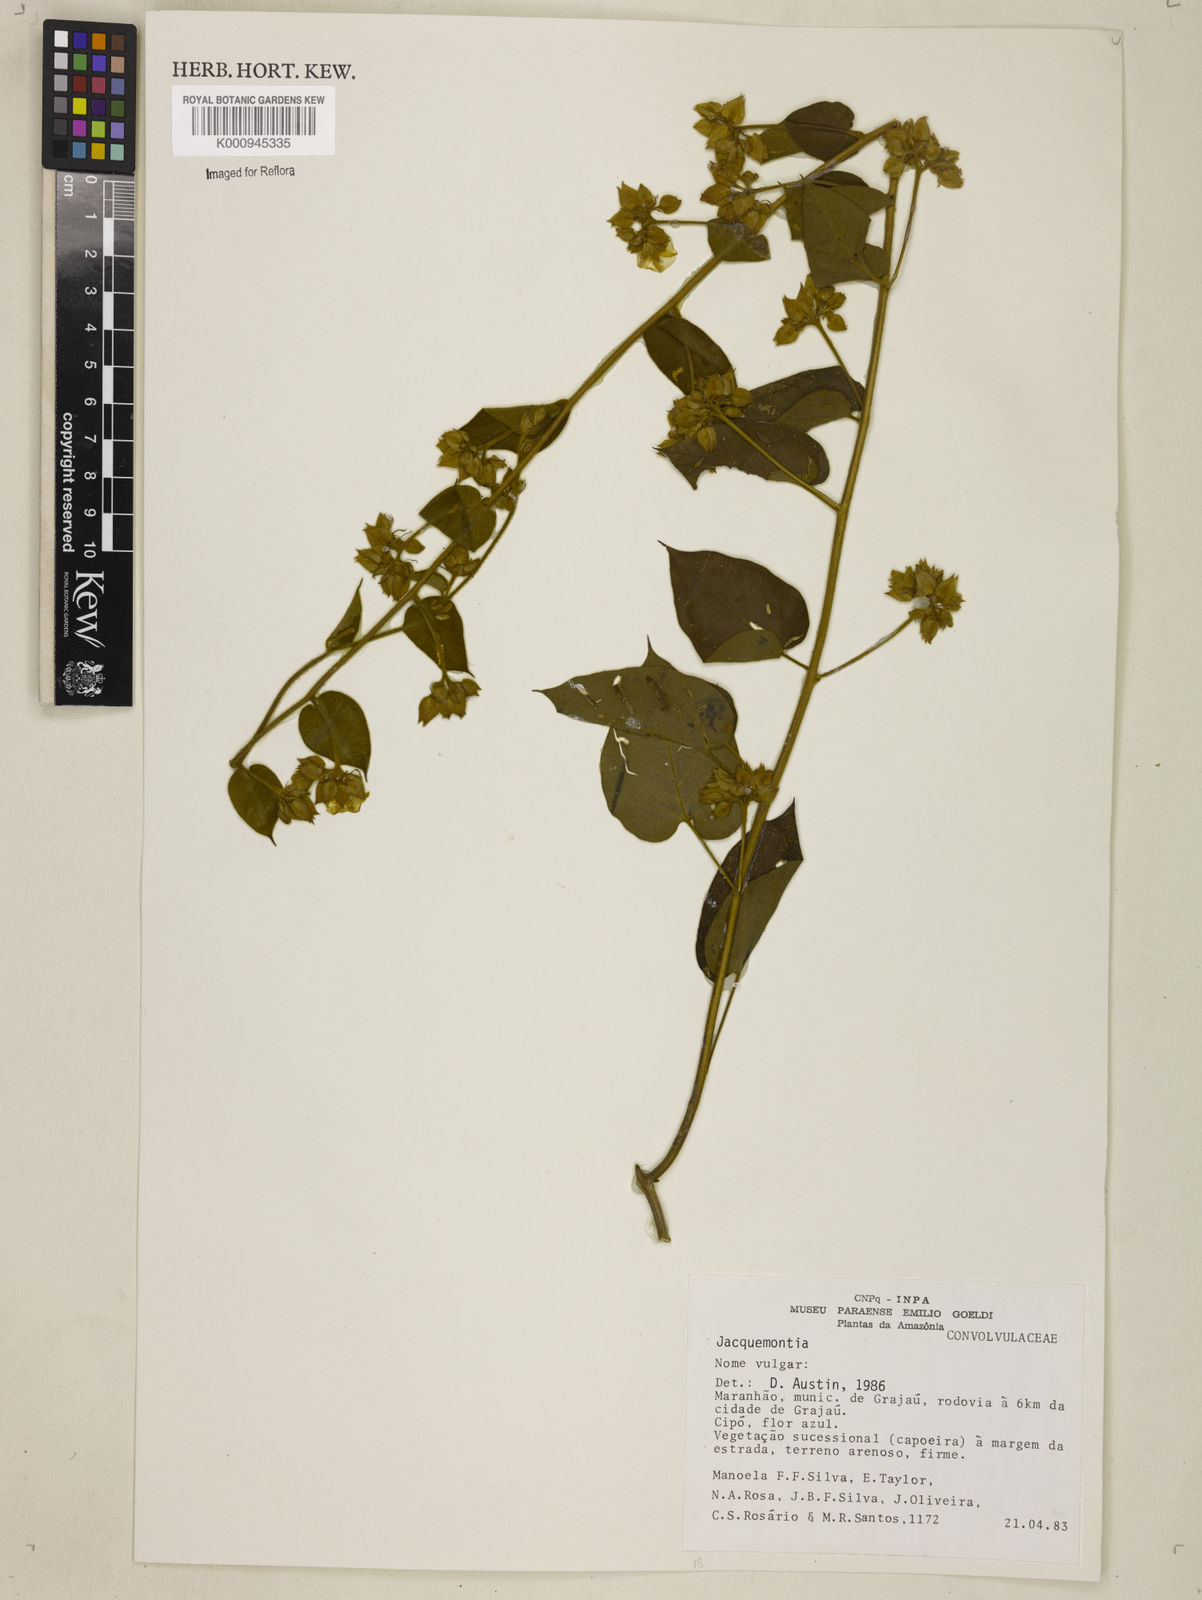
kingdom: Plantae
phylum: Tracheophyta
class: Magnoliopsida
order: Solanales
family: Convolvulaceae
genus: Jacquemontia
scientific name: Jacquemontia
